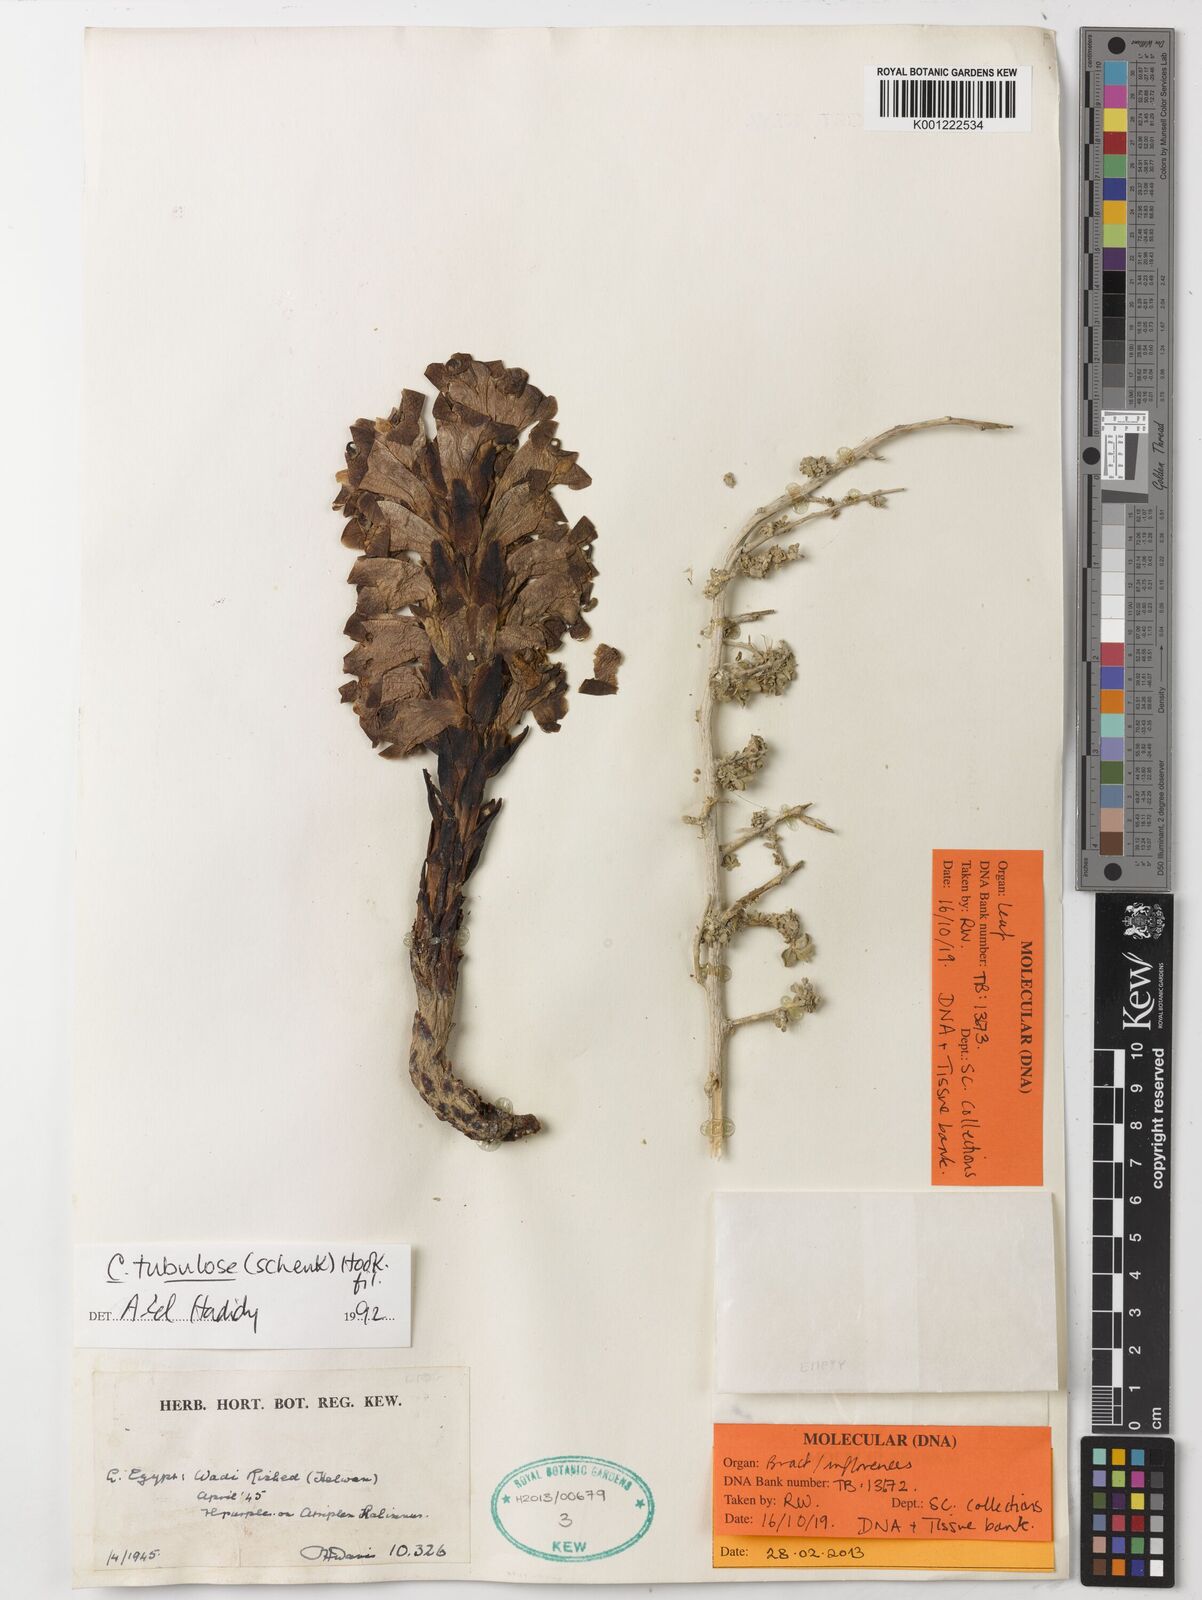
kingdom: Plantae
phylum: Tracheophyta
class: Magnoliopsida
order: Lamiales
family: Orobanchaceae
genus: Cistanche
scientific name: Cistanche tubulosa
